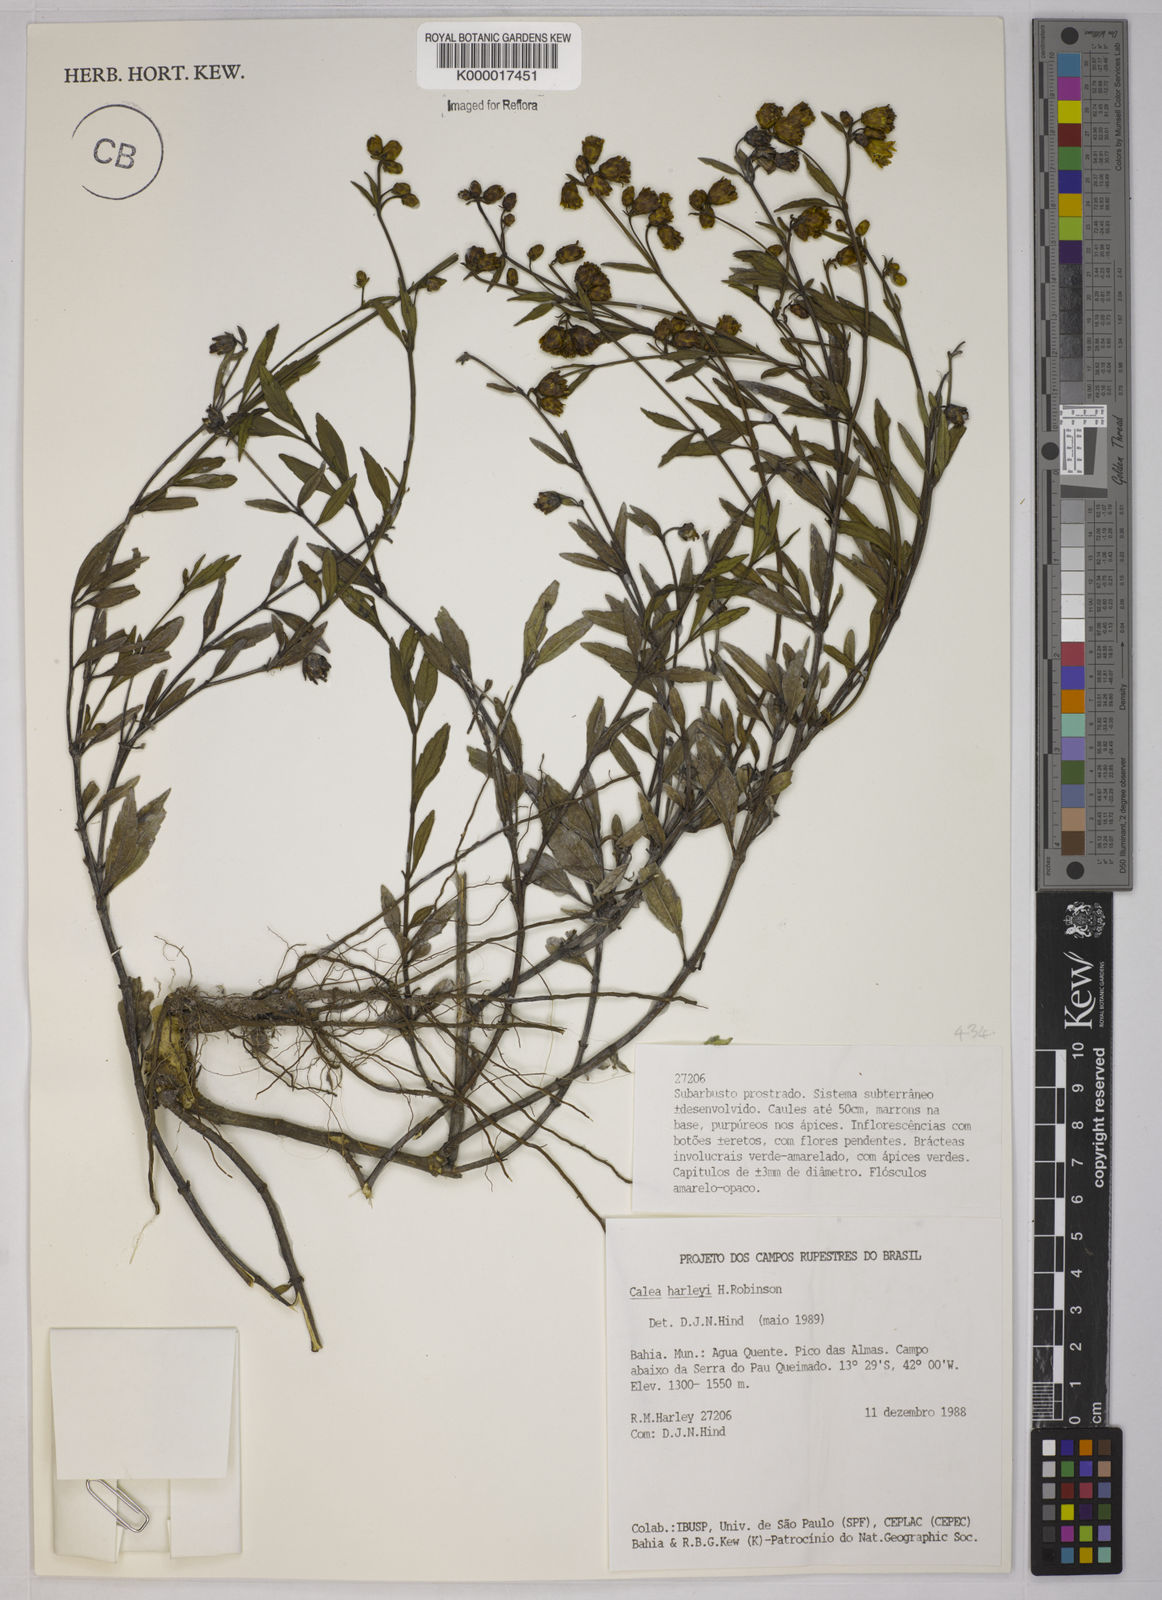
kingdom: Plantae
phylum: Tracheophyta
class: Magnoliopsida
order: Asterales
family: Asteraceae
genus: Calea
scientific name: Calea harleyi
